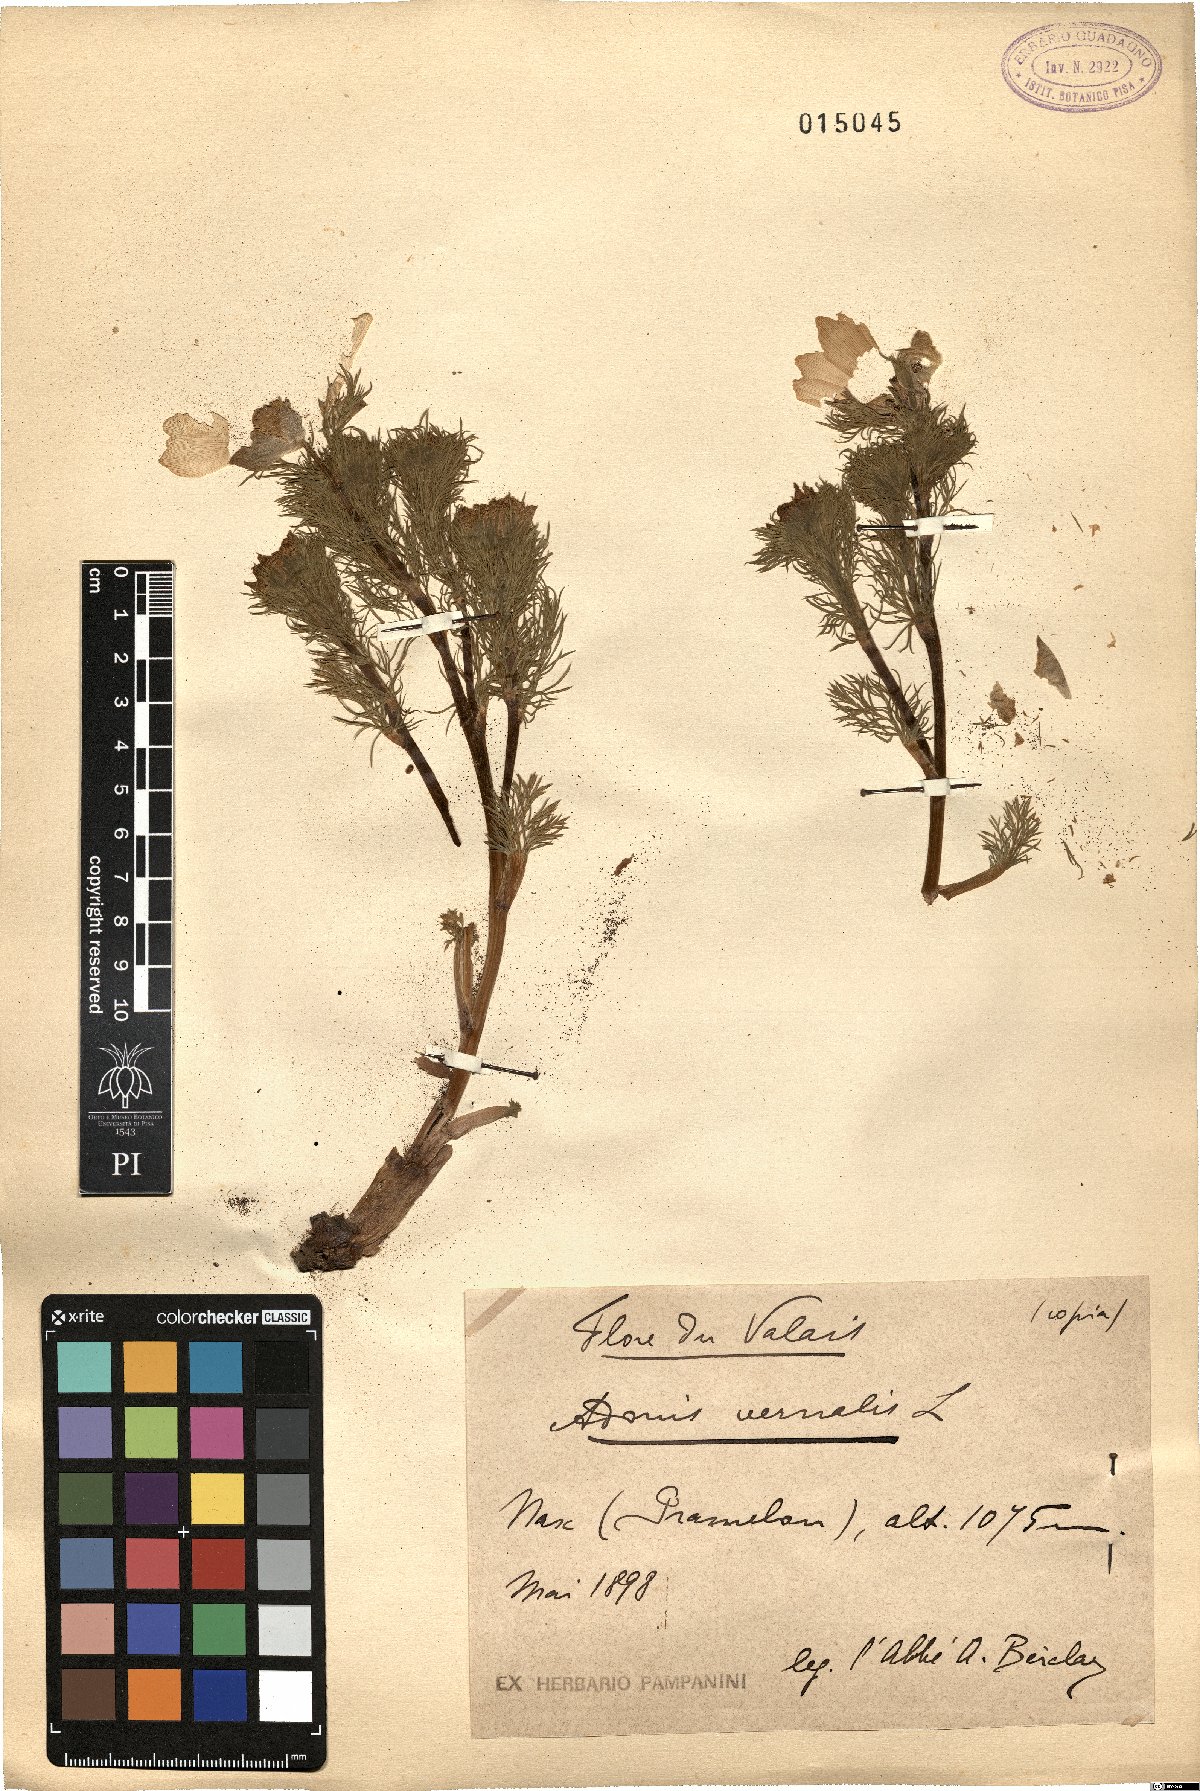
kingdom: Plantae
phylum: Tracheophyta
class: Magnoliopsida
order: Ranunculales
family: Ranunculaceae
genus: Adonis
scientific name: Adonis vernalis
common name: Yellow pheasants-eye
